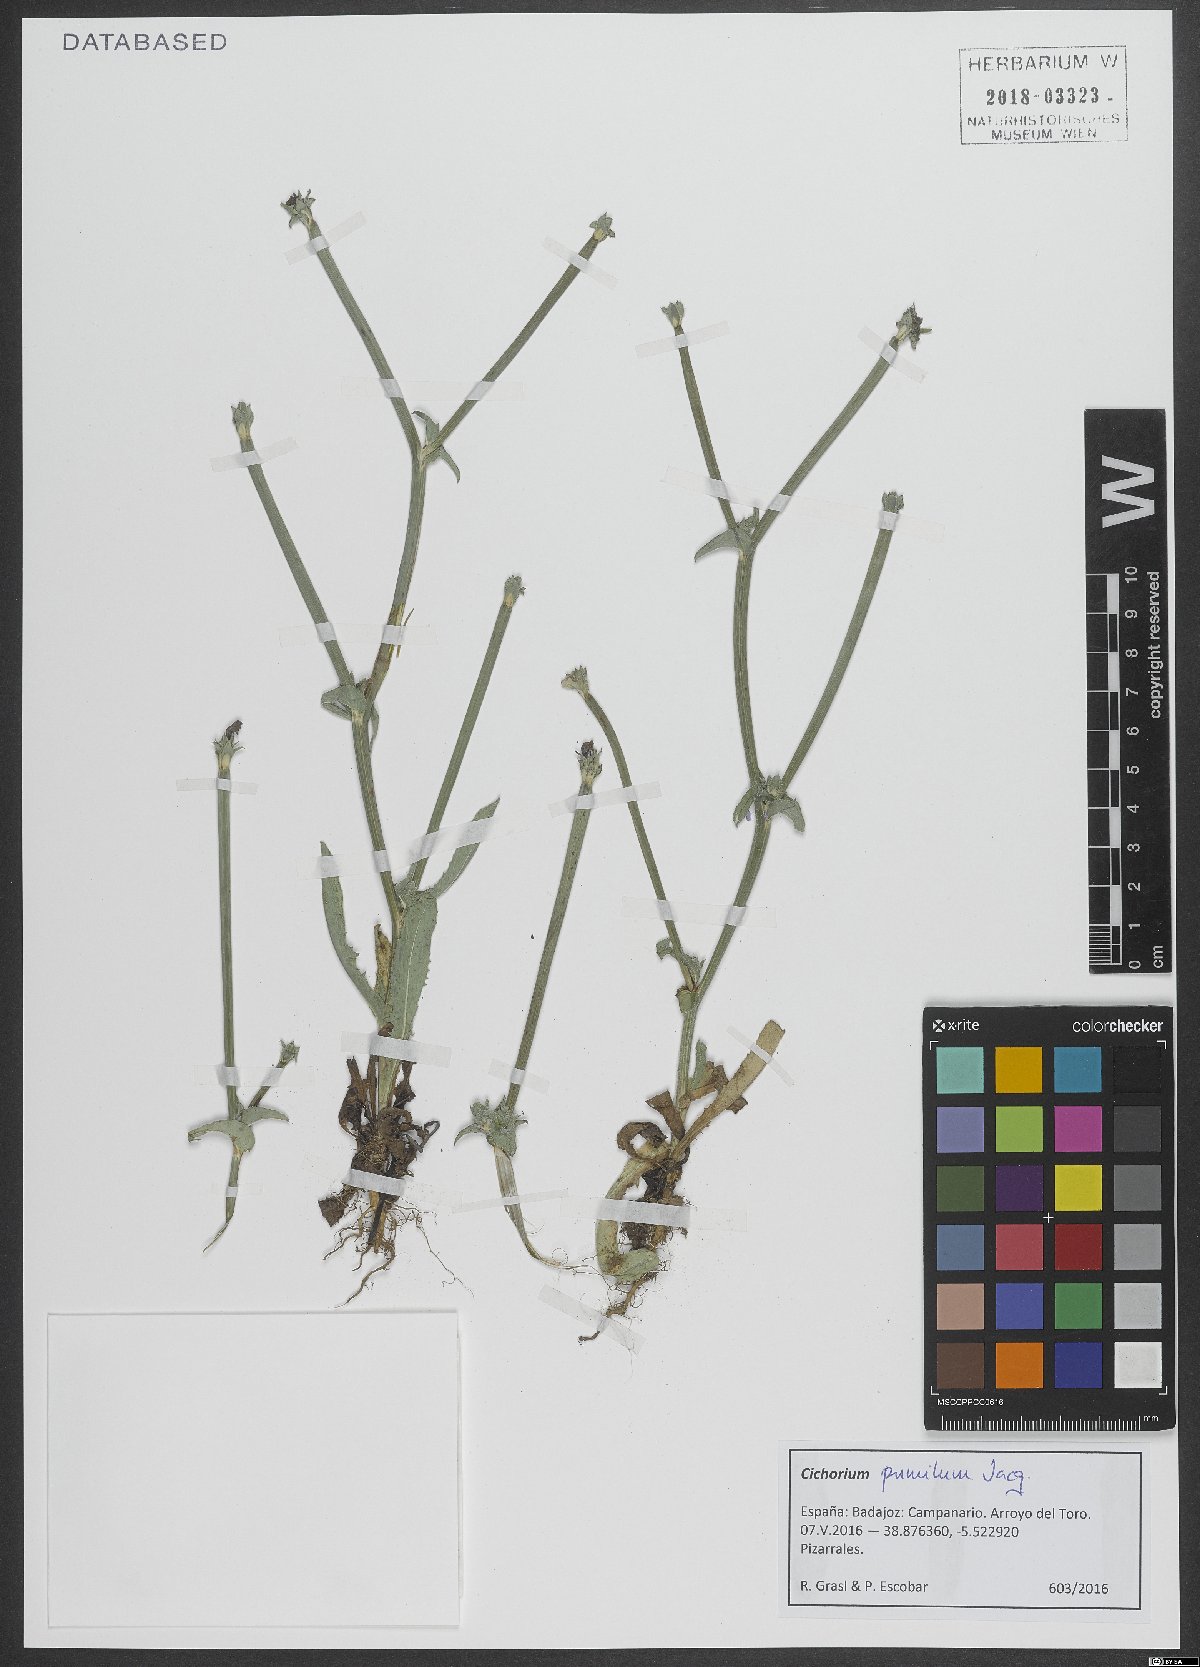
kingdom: Plantae
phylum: Tracheophyta
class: Magnoliopsida
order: Asterales
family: Asteraceae
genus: Cichorium
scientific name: Cichorium pumilum
